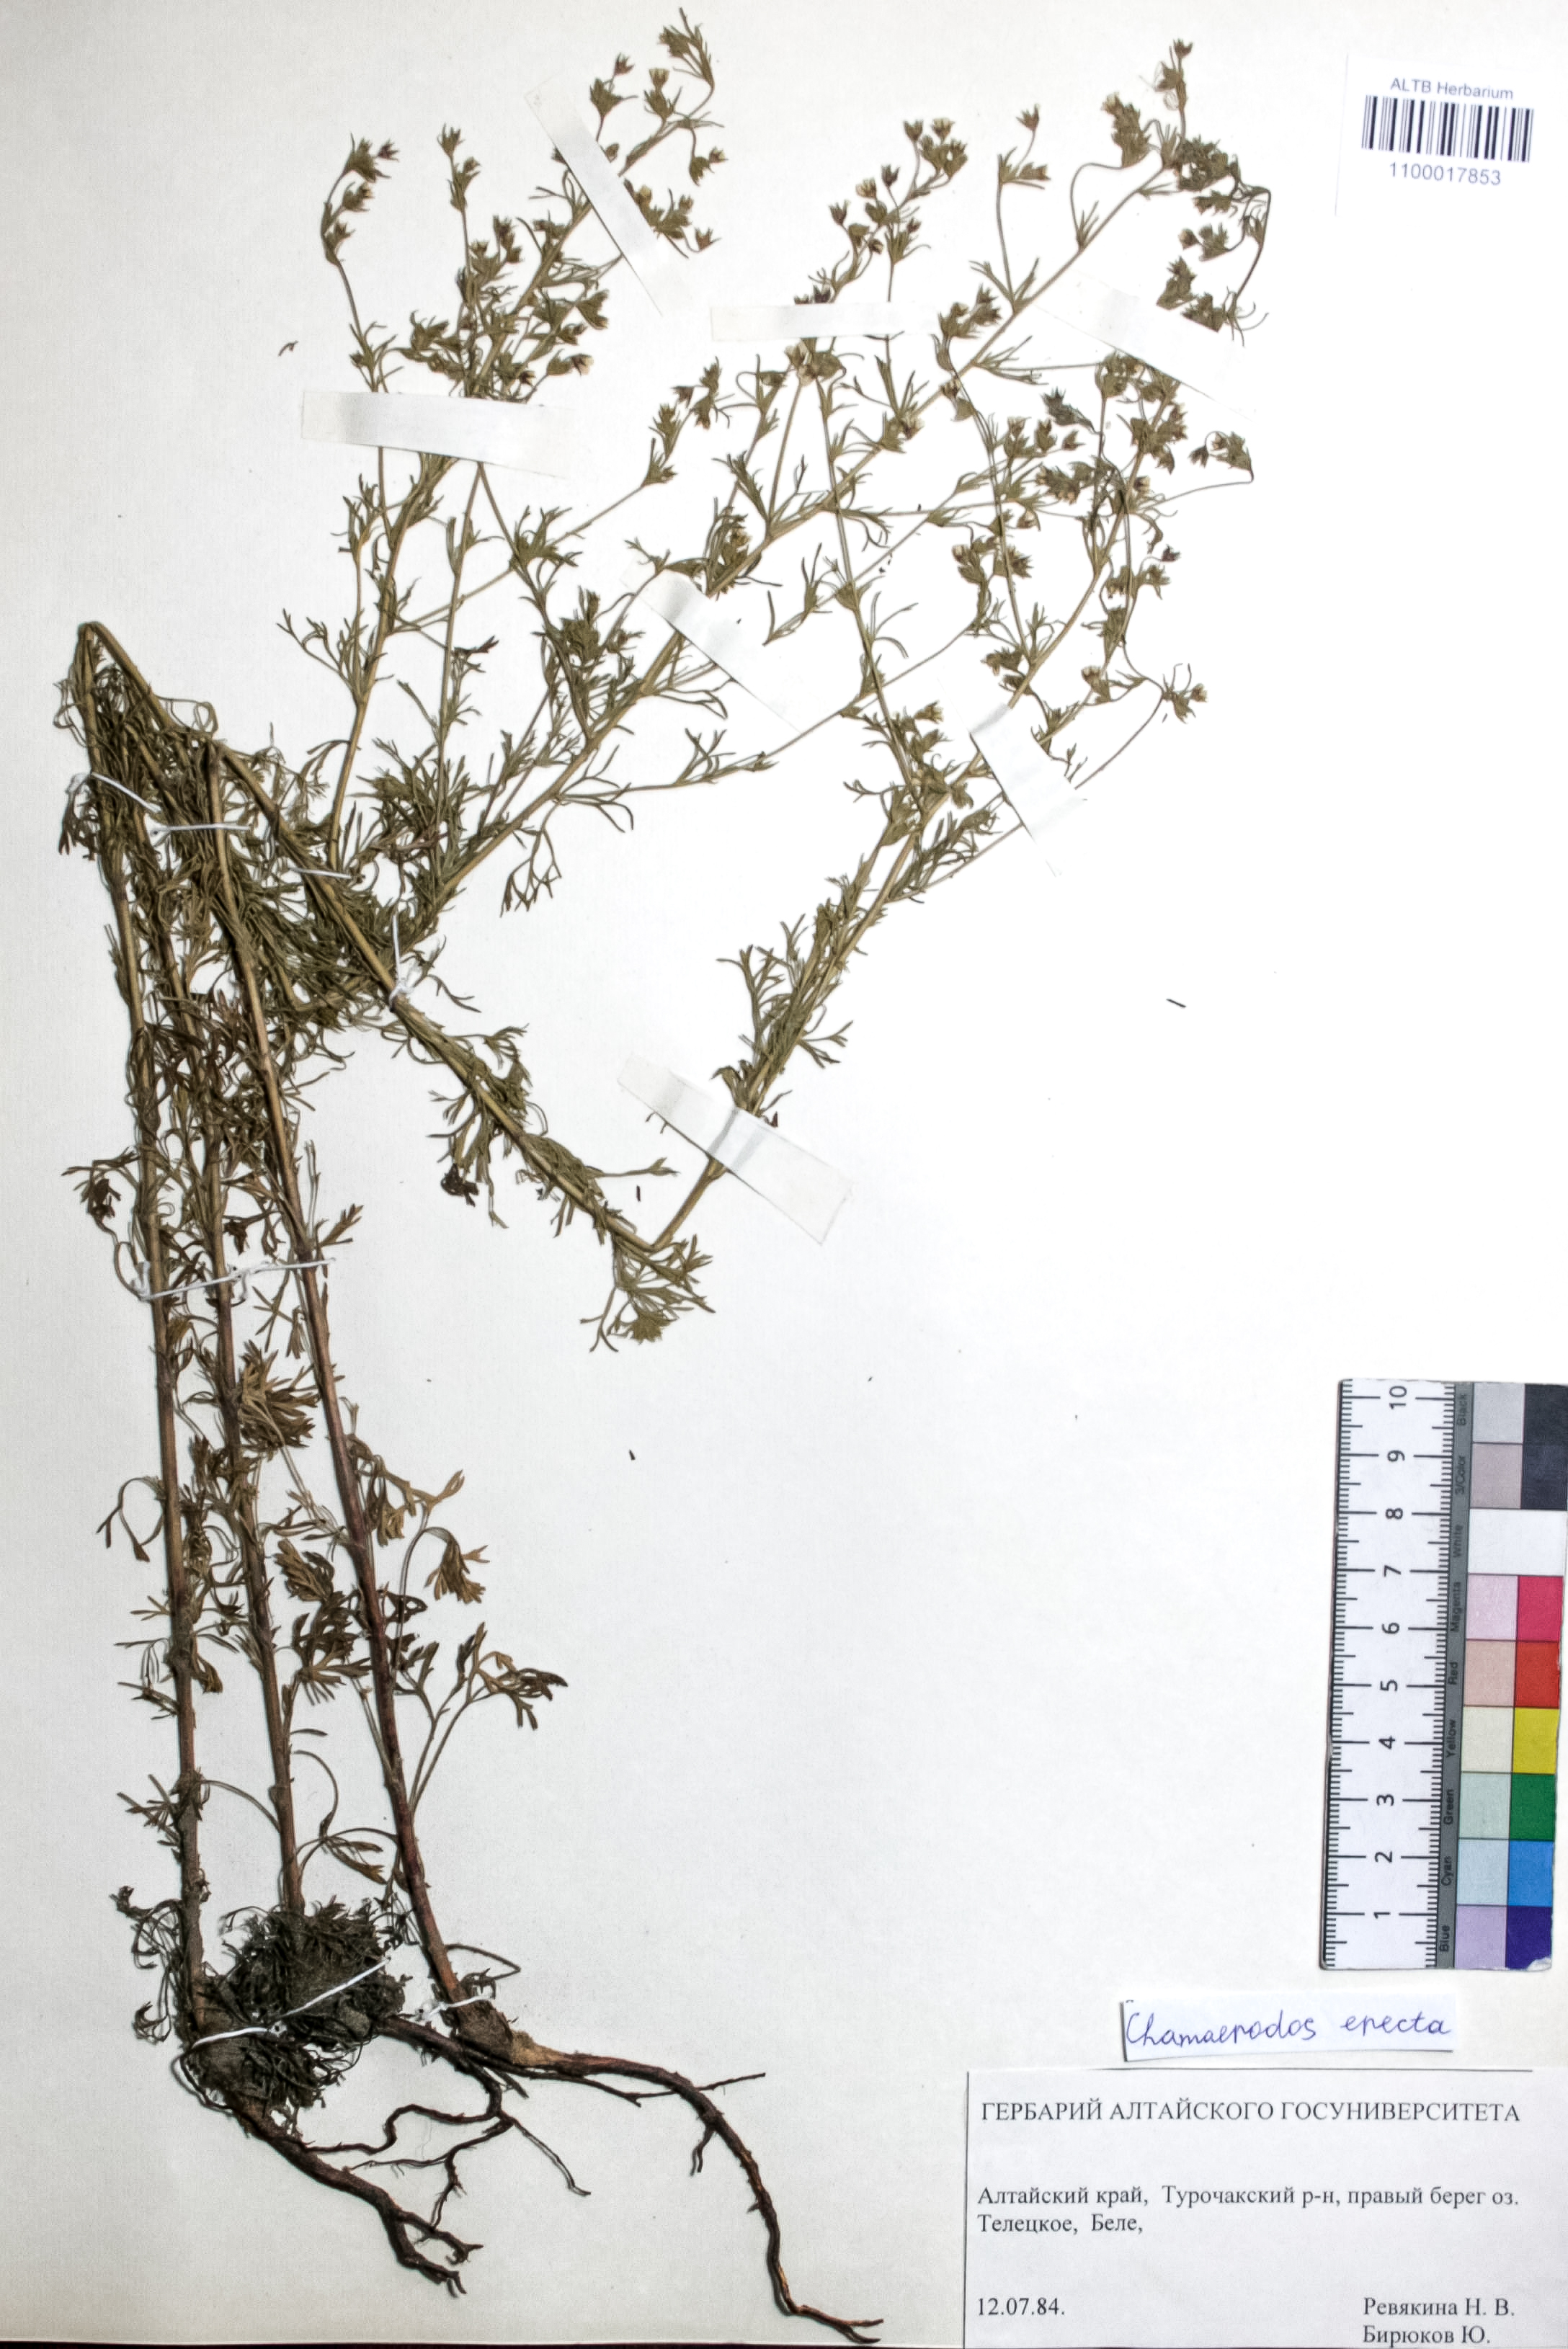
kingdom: Plantae
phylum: Tracheophyta
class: Magnoliopsida
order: Rosales
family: Rosaceae
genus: Chamaerhodos
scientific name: Chamaerhodos erecta
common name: American chamaerhodos
